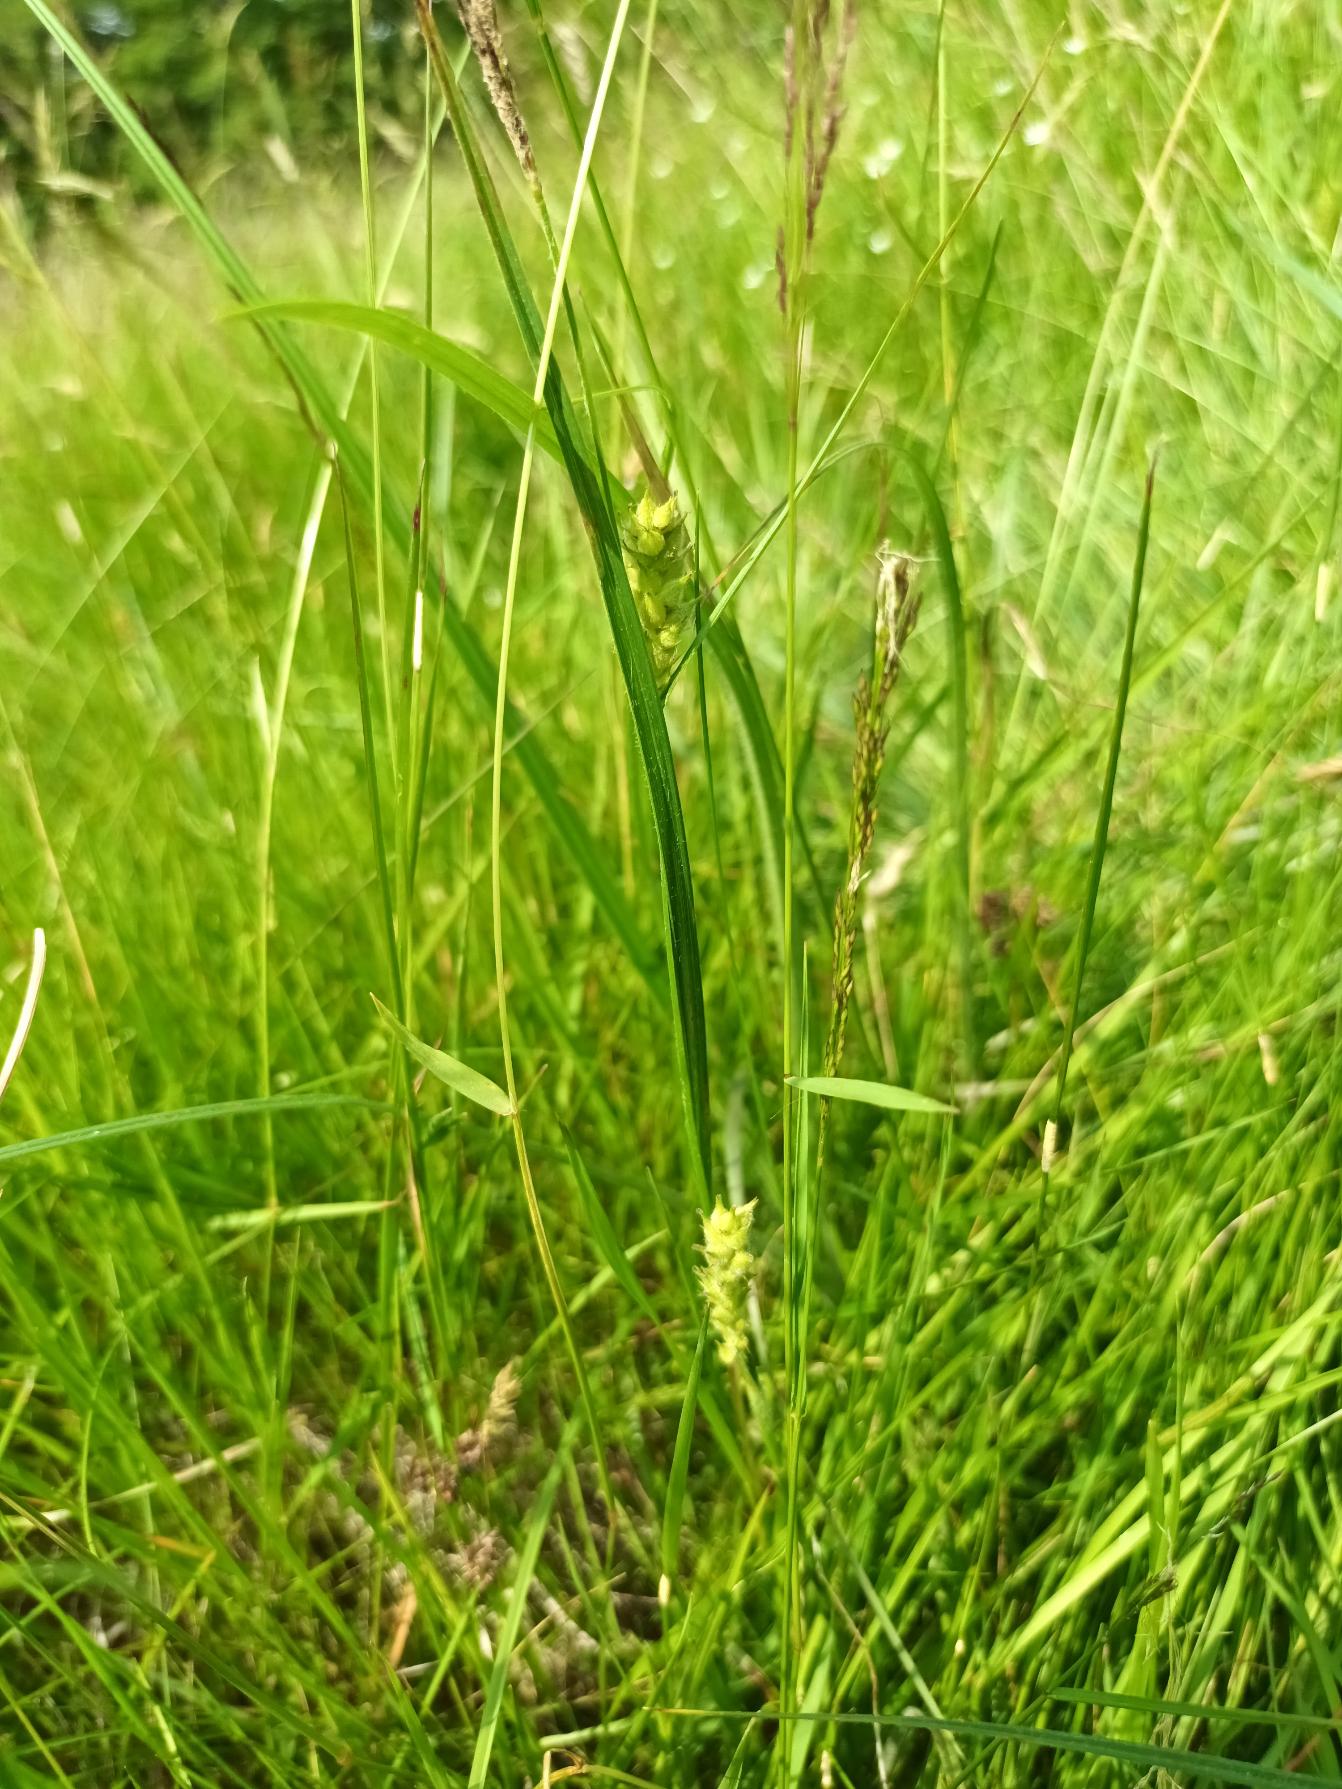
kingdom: Plantae
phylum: Tracheophyta
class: Liliopsida
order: Poales
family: Cyperaceae
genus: Carex
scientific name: Carex hirta
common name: Håret star
